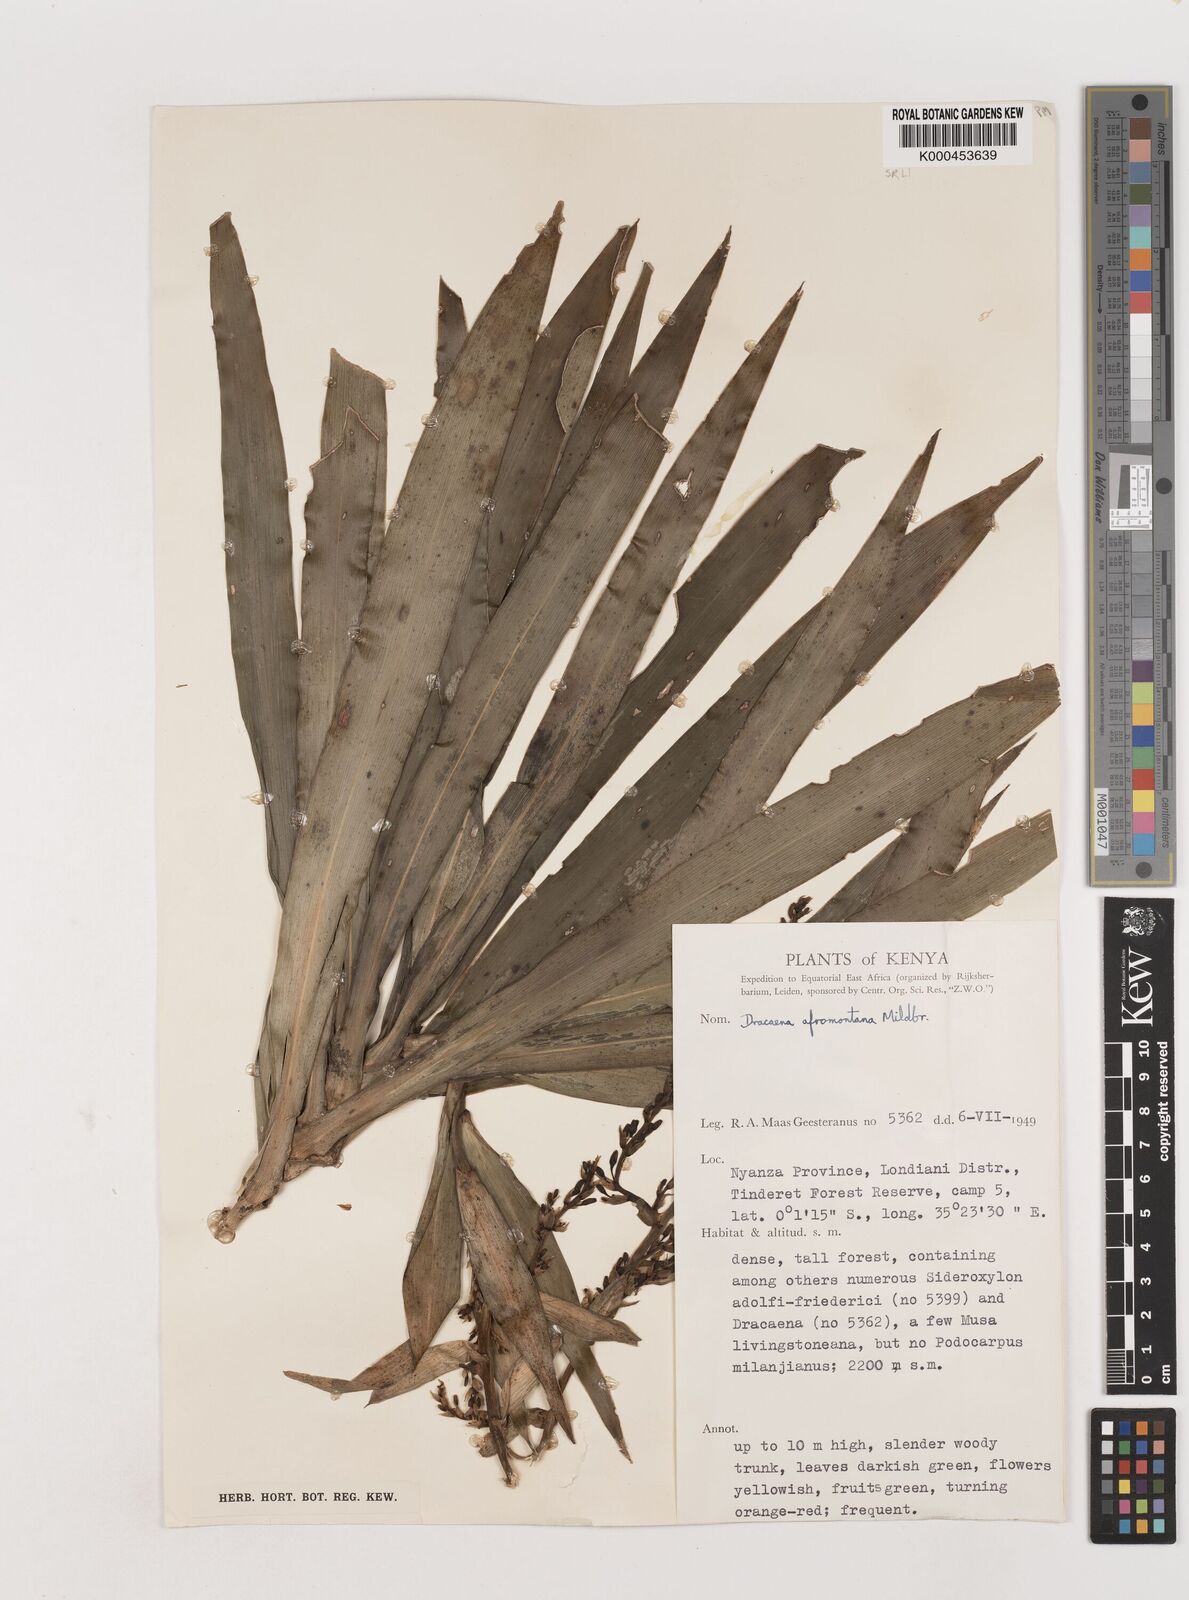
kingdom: Plantae
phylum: Tracheophyta
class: Liliopsida
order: Asparagales
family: Asparagaceae
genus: Dracaena
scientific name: Dracaena afromontana
